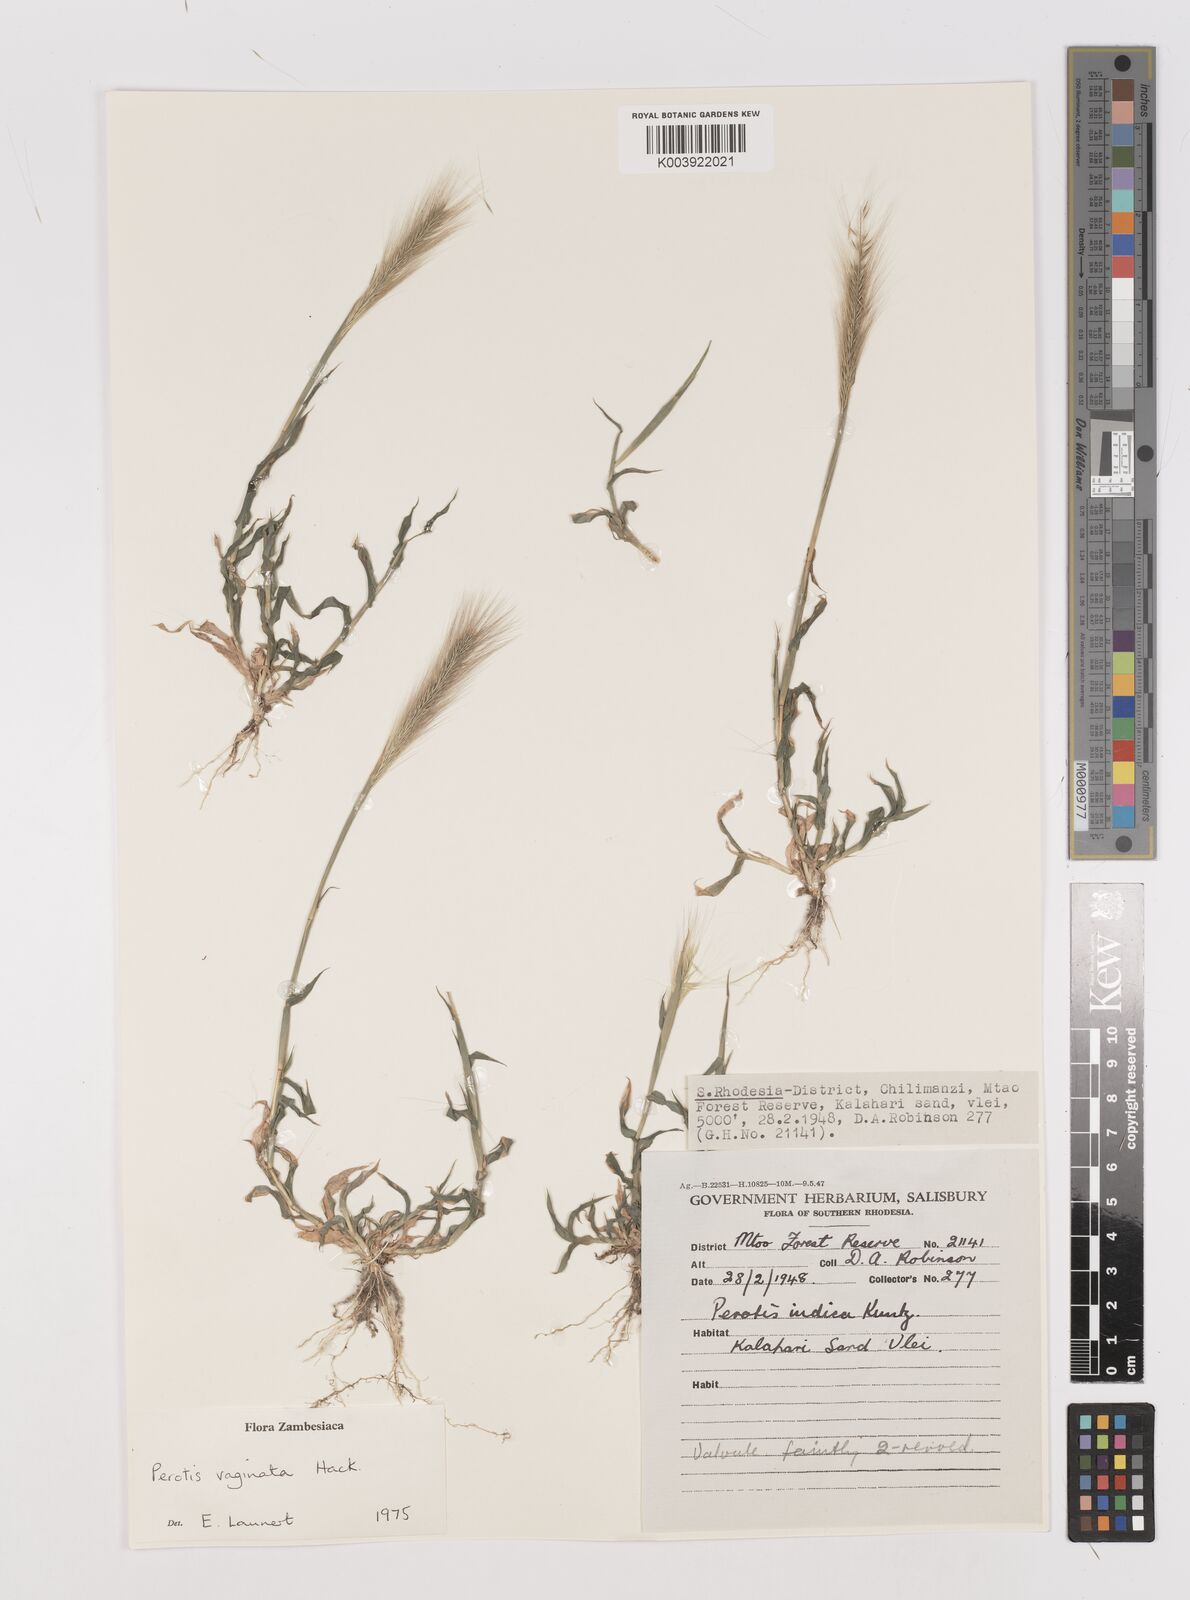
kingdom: Plantae
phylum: Tracheophyta
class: Liliopsida
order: Poales
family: Poaceae
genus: Perotis
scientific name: Perotis vaginata
